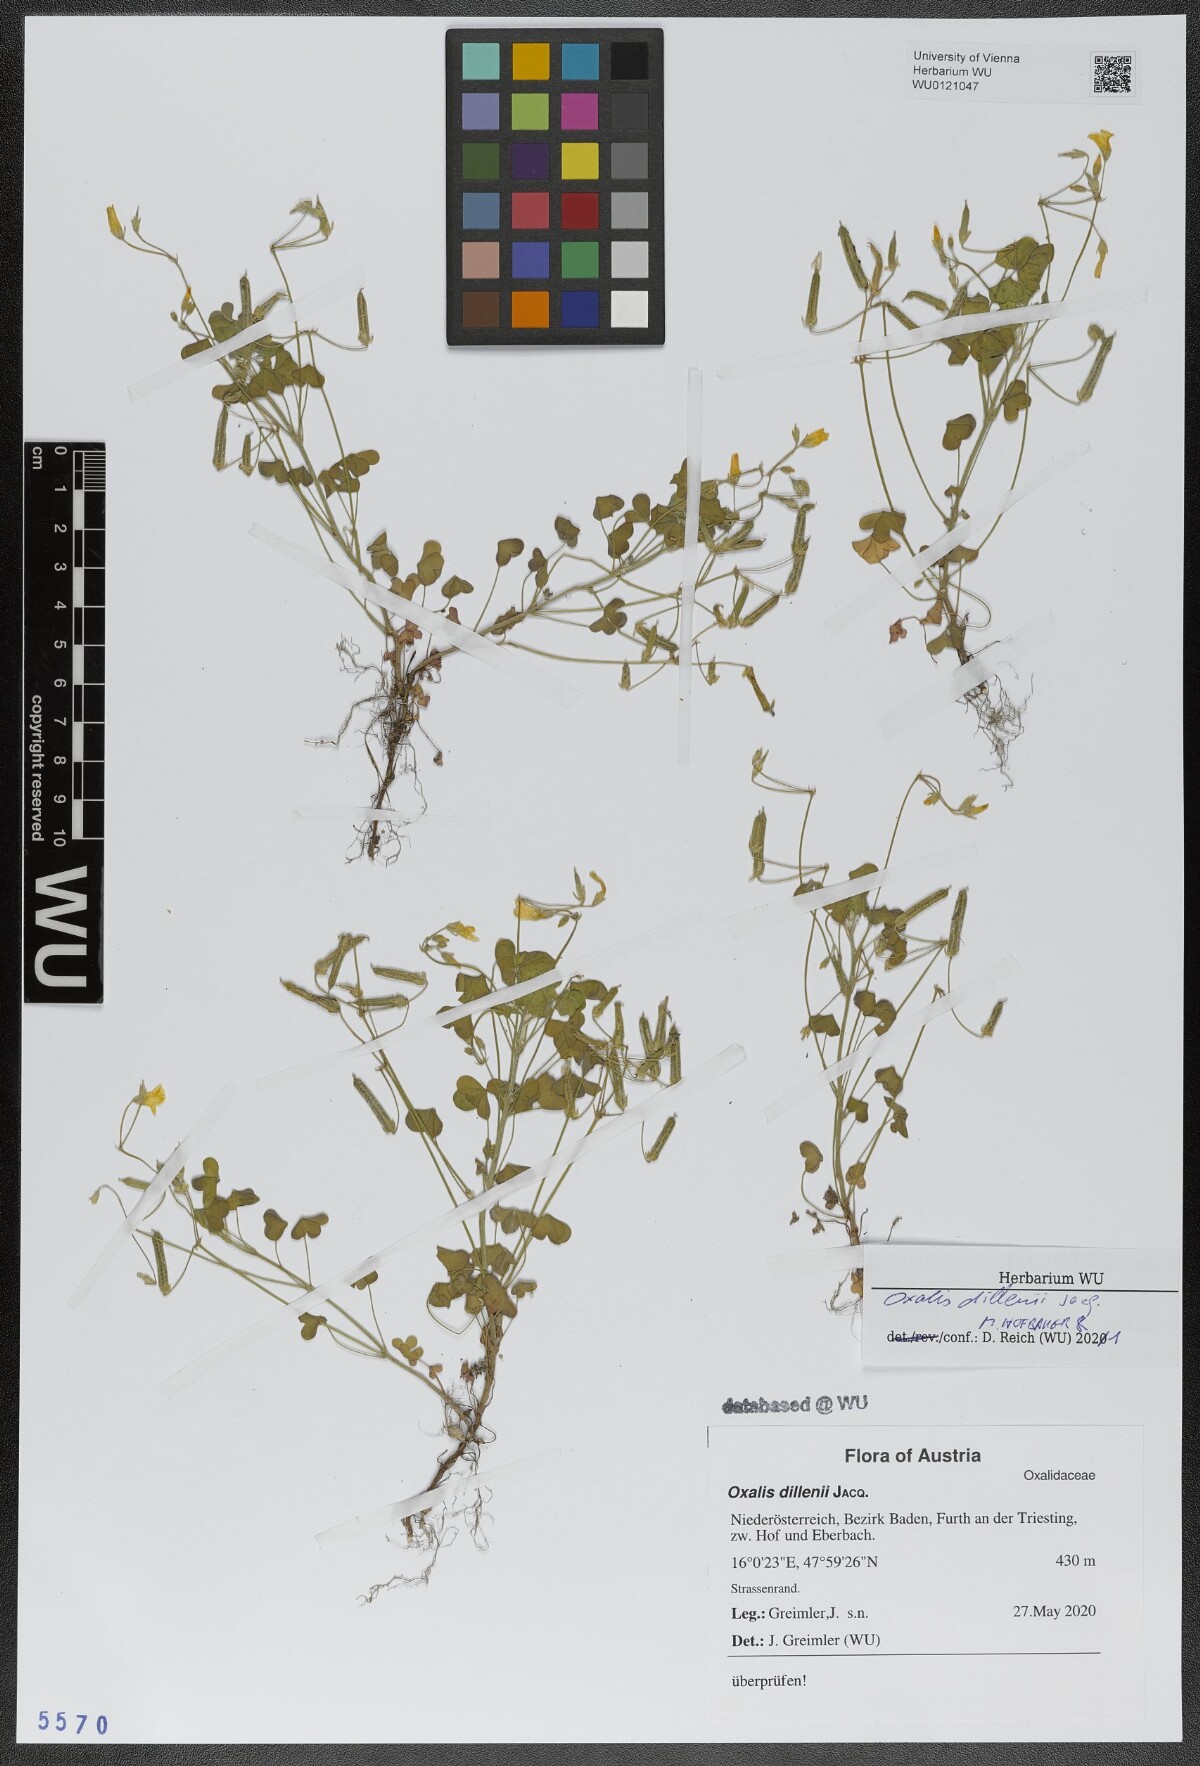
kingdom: Plantae
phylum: Tracheophyta
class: Magnoliopsida
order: Oxalidales
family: Oxalidaceae
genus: Oxalis
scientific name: Oxalis dillenii
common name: Sussex yellow-sorrel
